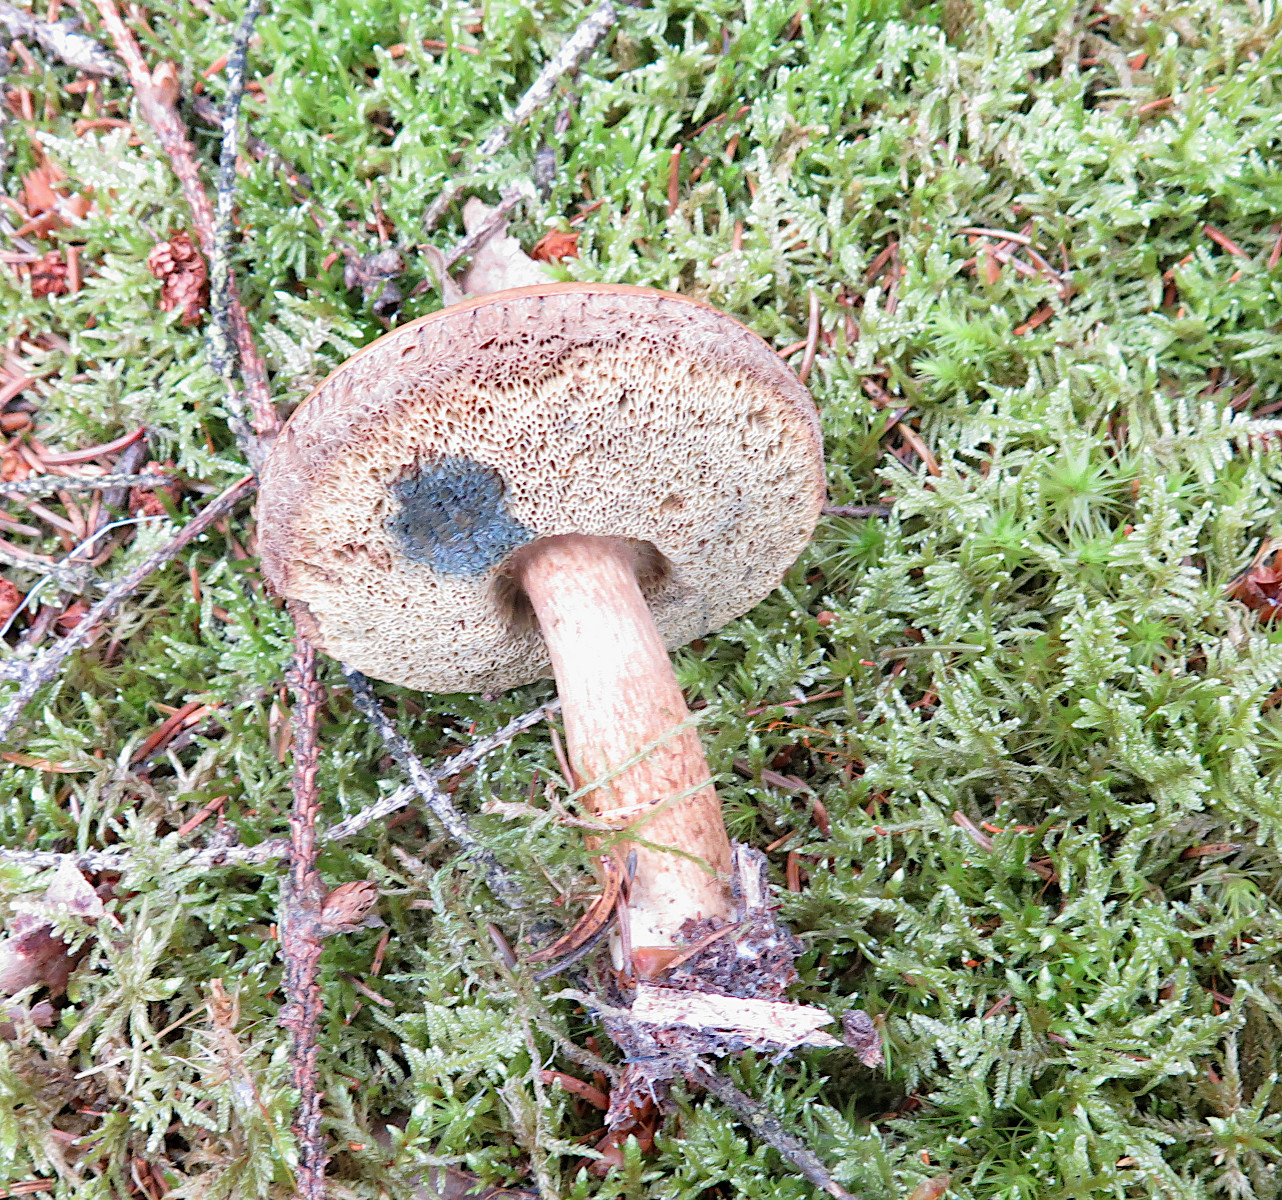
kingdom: Fungi
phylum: Basidiomycota
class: Agaricomycetes
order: Boletales
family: Boletaceae
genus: Imleria
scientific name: Imleria badia
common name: brunstokket rørhat
